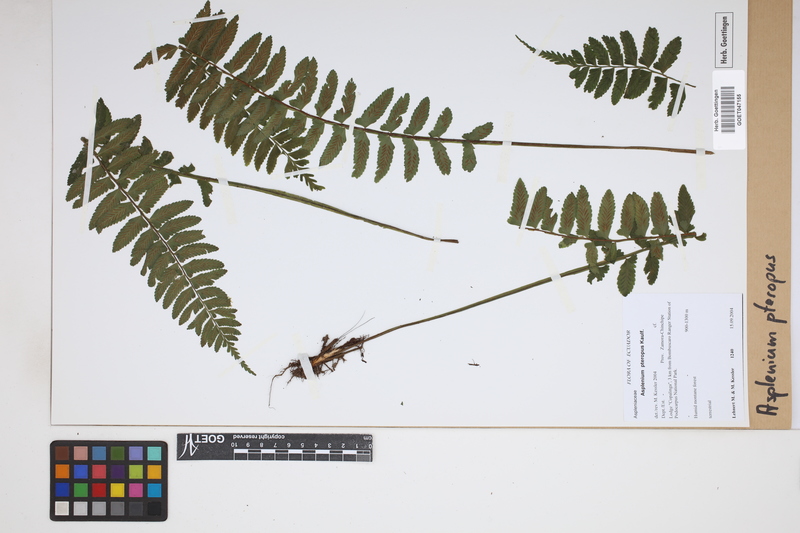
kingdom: Plantae
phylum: Tracheophyta
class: Polypodiopsida
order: Polypodiales
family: Aspleniaceae
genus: Asplenium
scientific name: Asplenium pteropus
